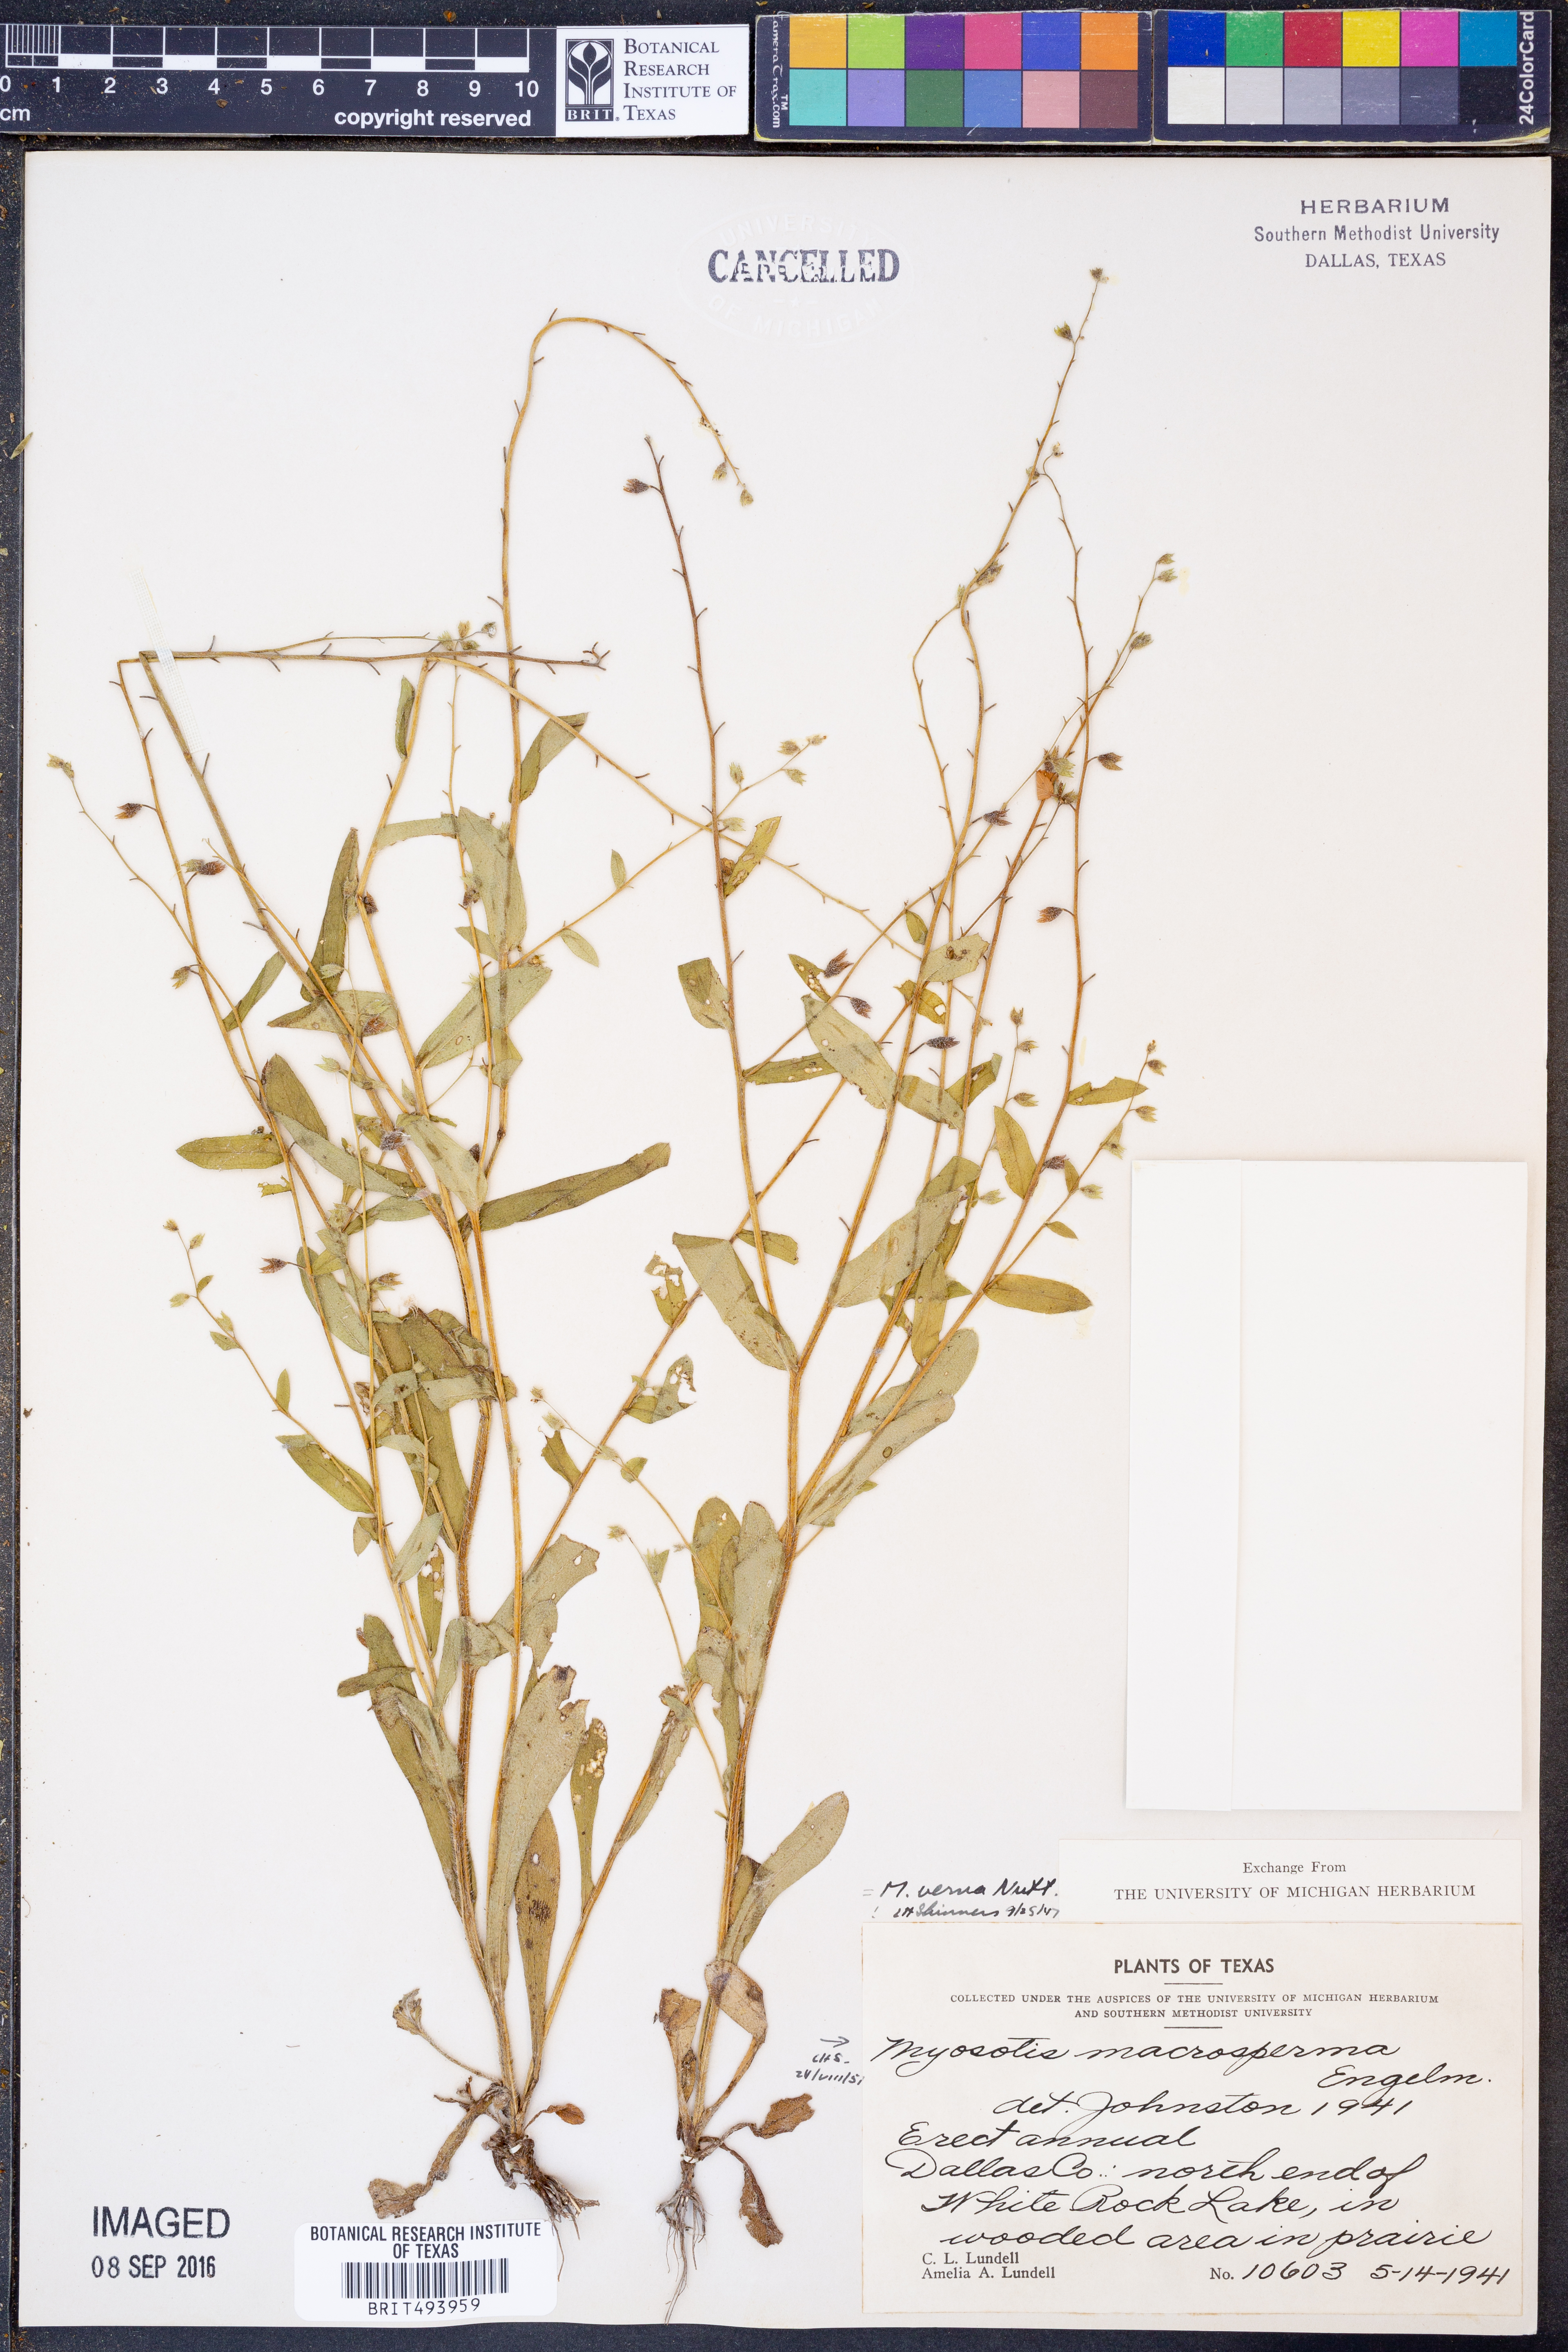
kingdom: Plantae
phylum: Tracheophyta
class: Magnoliopsida
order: Boraginales
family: Boraginaceae
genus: Myosotis
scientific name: Myosotis macrosperma
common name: Large-seed forget-me-not
